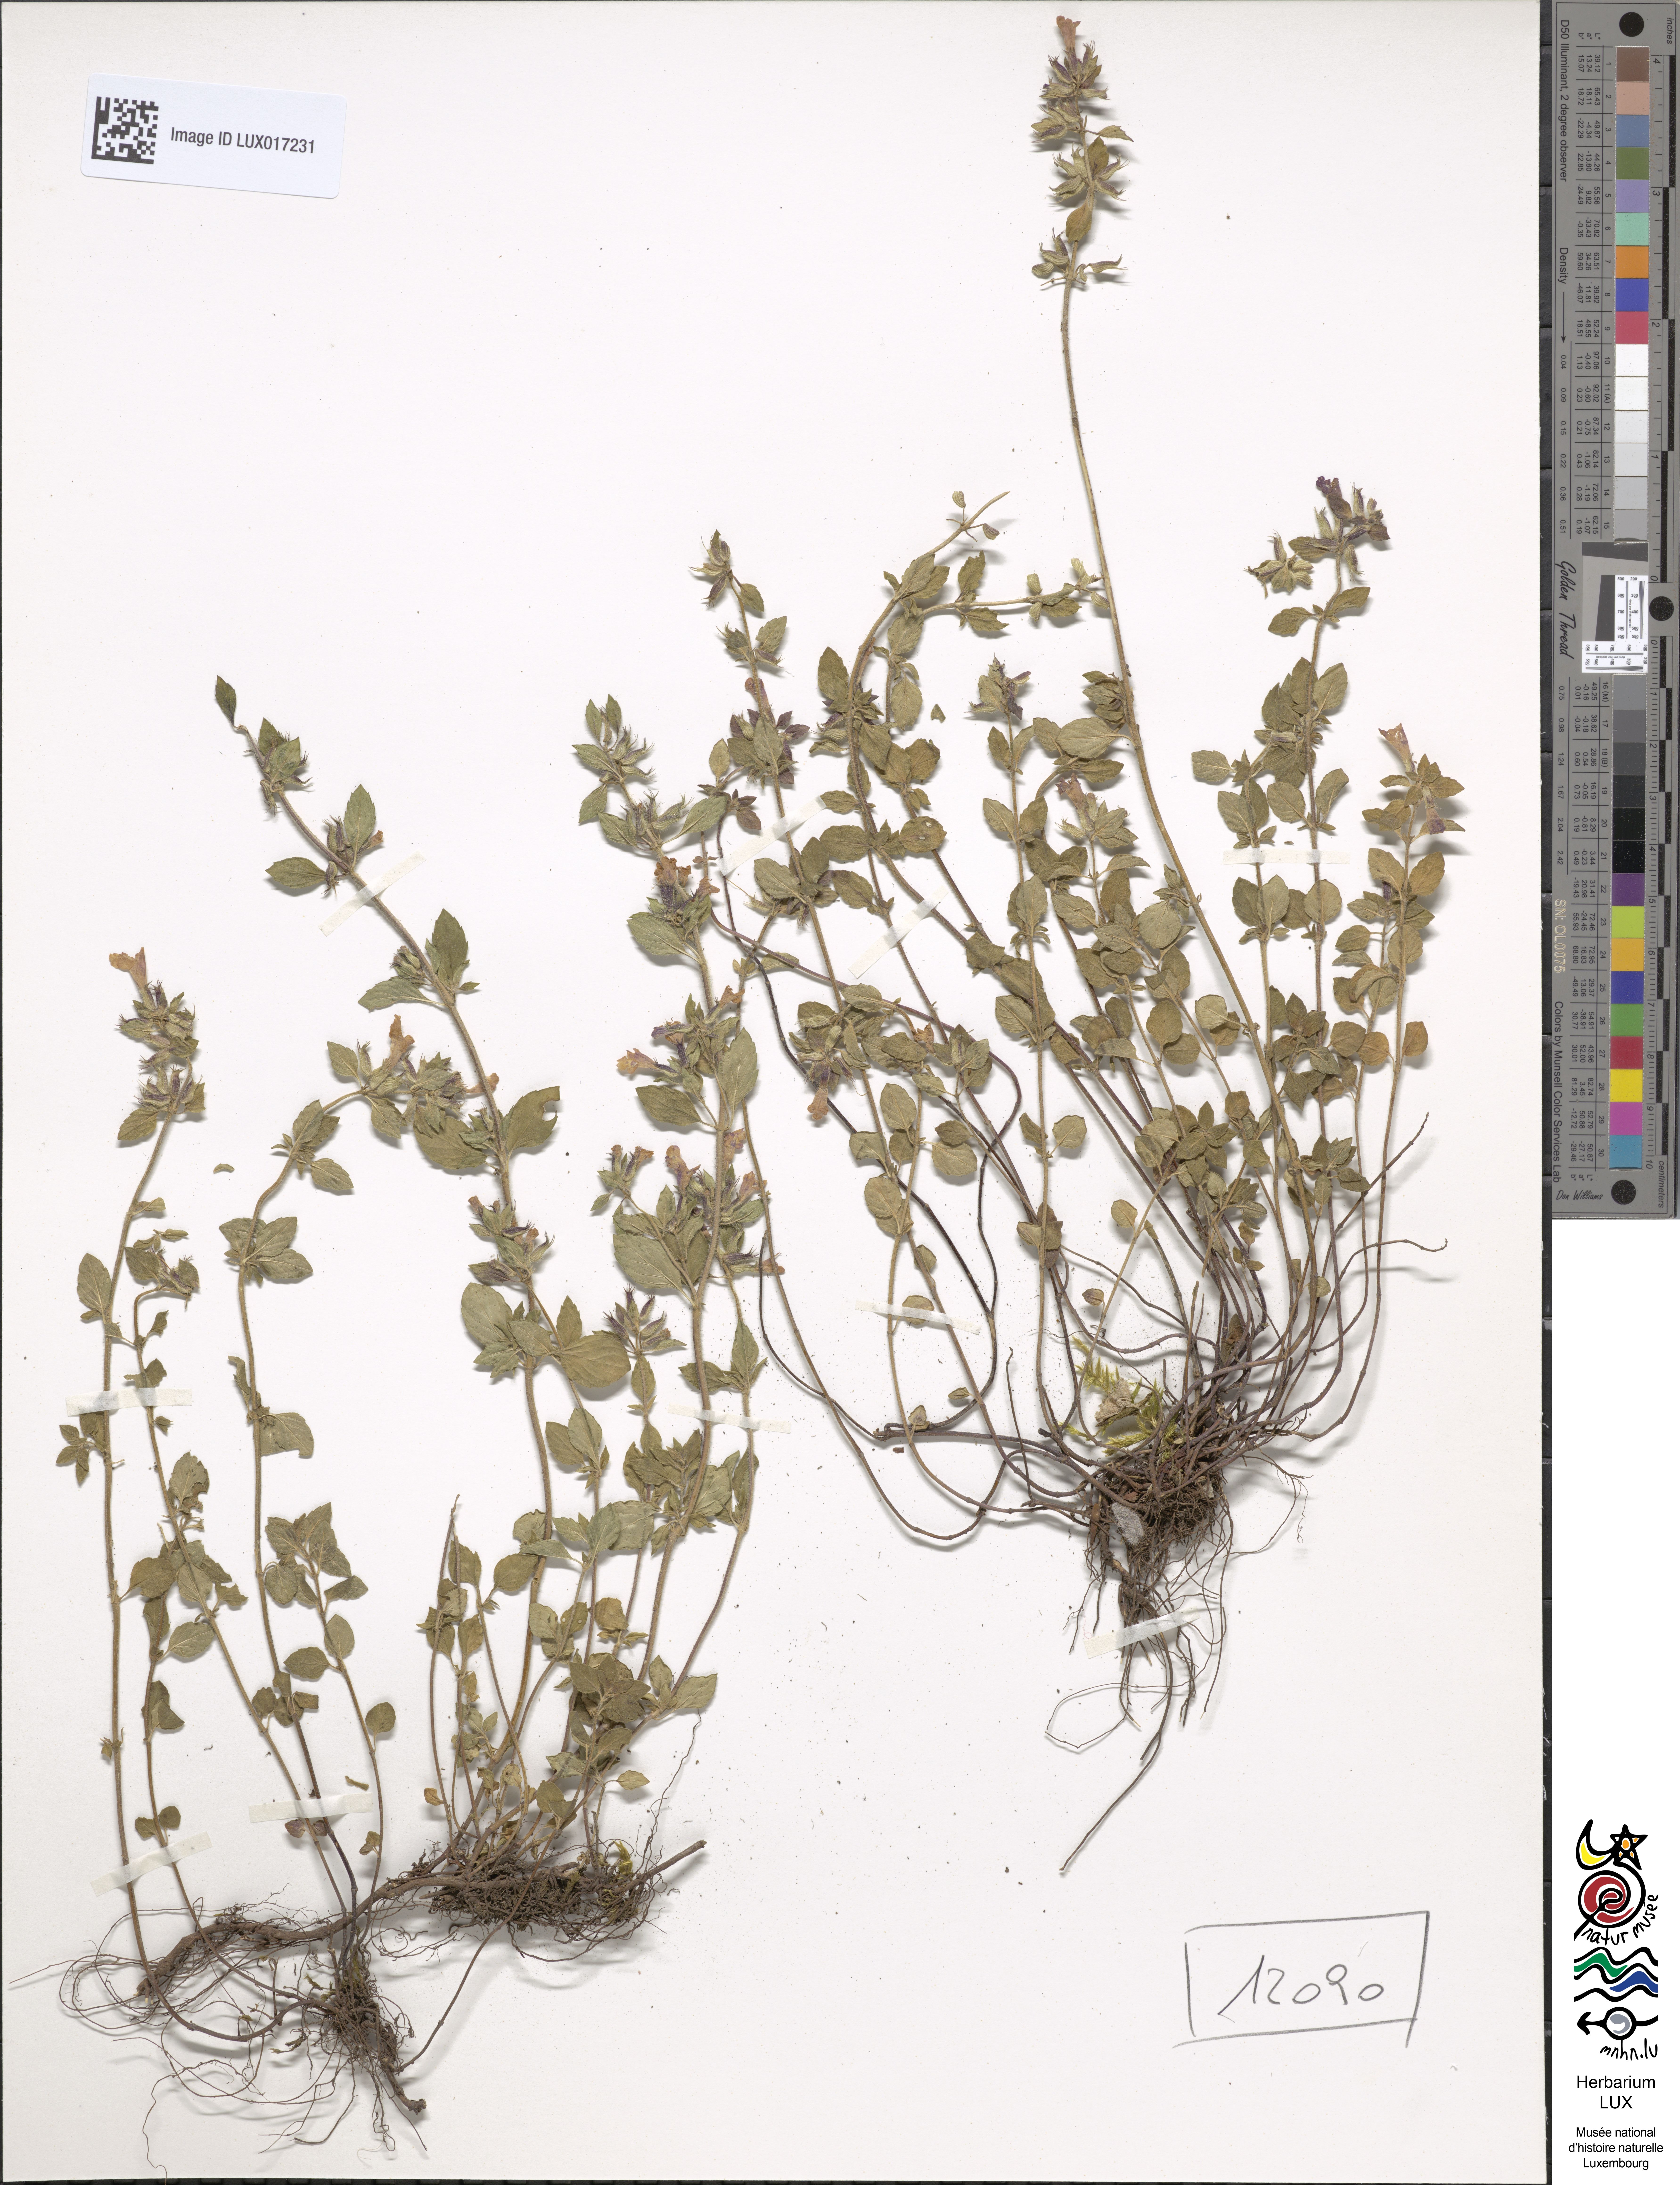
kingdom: Plantae
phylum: Tracheophyta
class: Magnoliopsida
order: Lamiales
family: Lamiaceae
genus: Clinopodium
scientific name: Clinopodium alpinum
